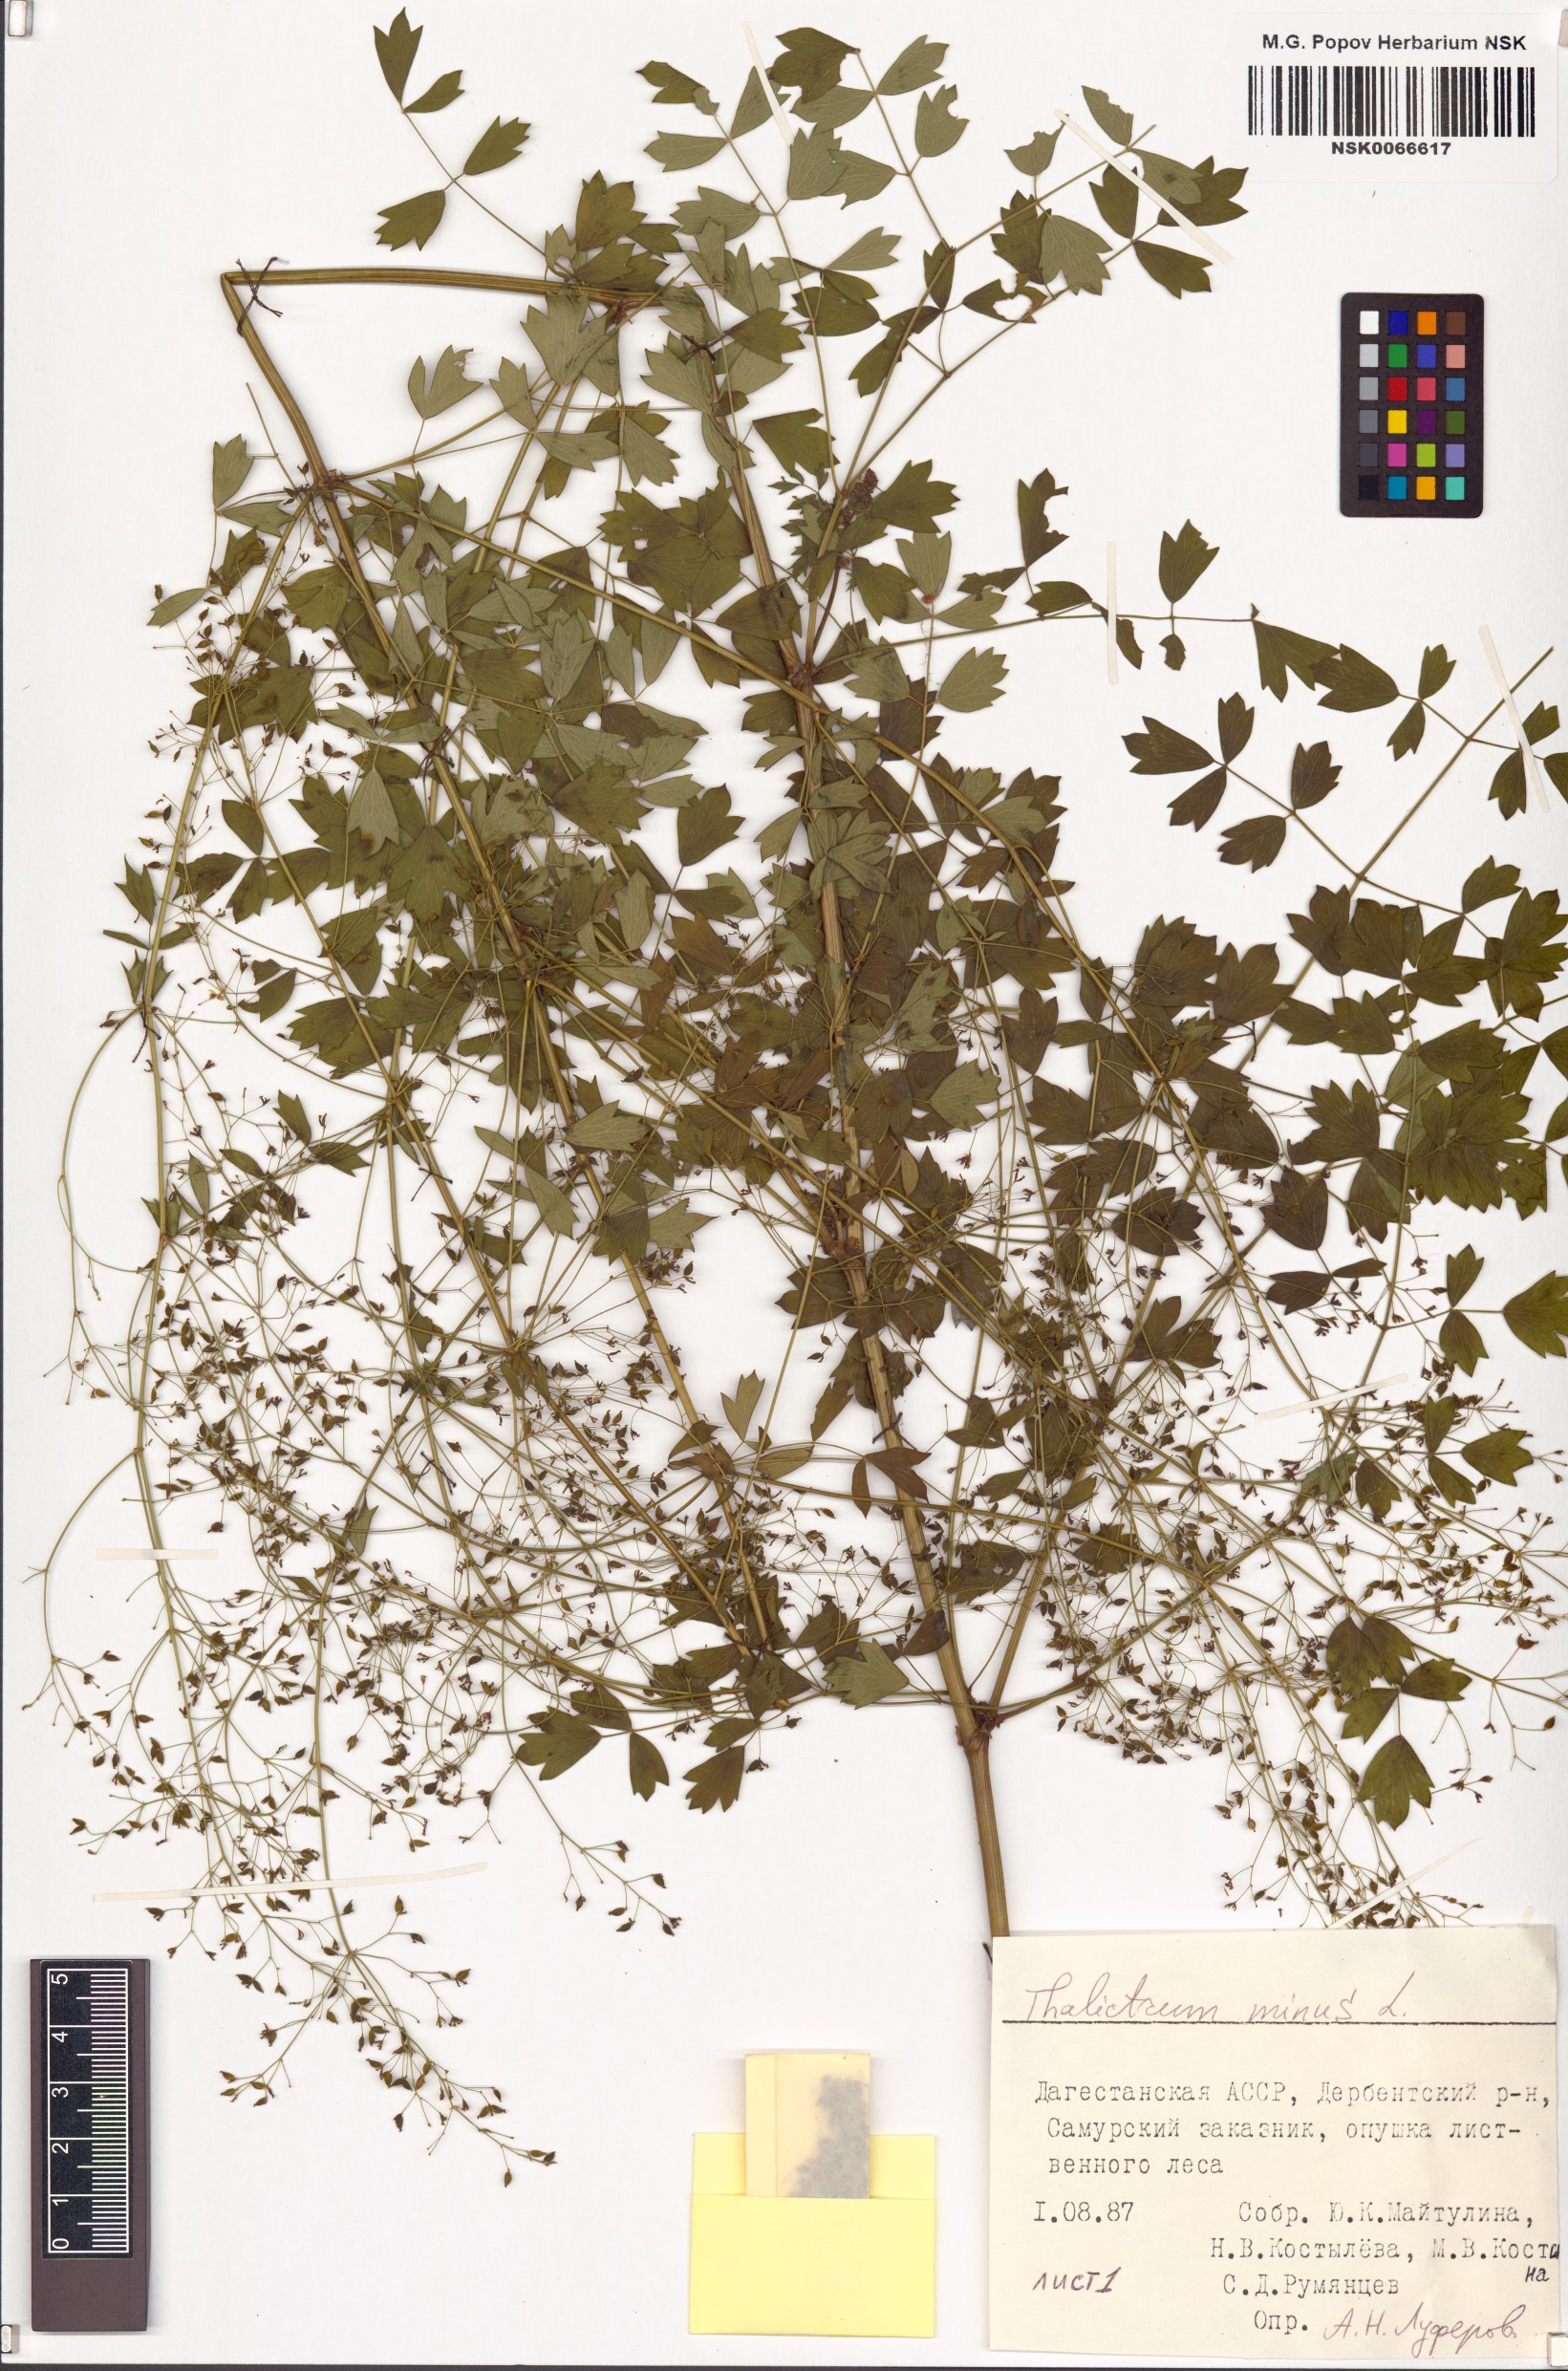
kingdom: Plantae
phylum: Tracheophyta
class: Magnoliopsida
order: Ranunculales
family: Ranunculaceae
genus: Thalictrum
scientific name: Thalictrum minus
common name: Lesser meadow-rue
